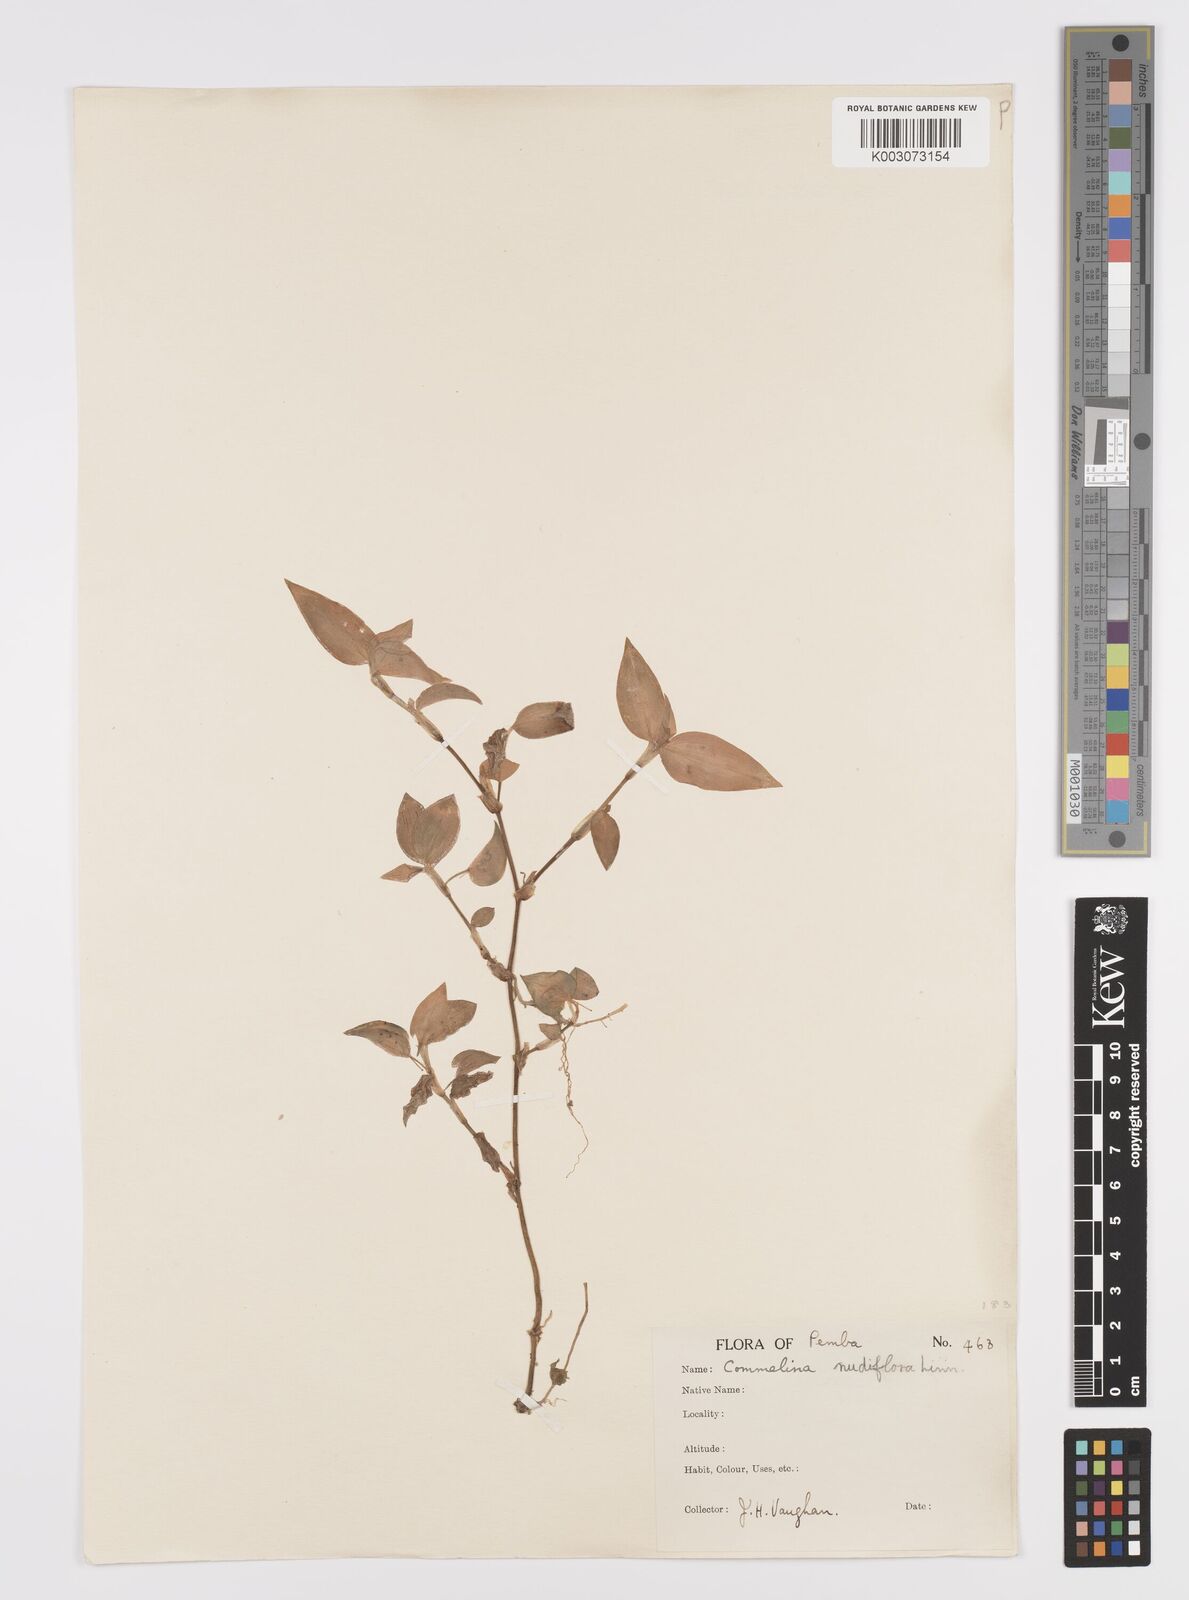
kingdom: Plantae
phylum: Tracheophyta
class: Liliopsida
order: Commelinales
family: Commelinaceae
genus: Commelina
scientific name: Commelina diffusa
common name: Climbing dayflower
